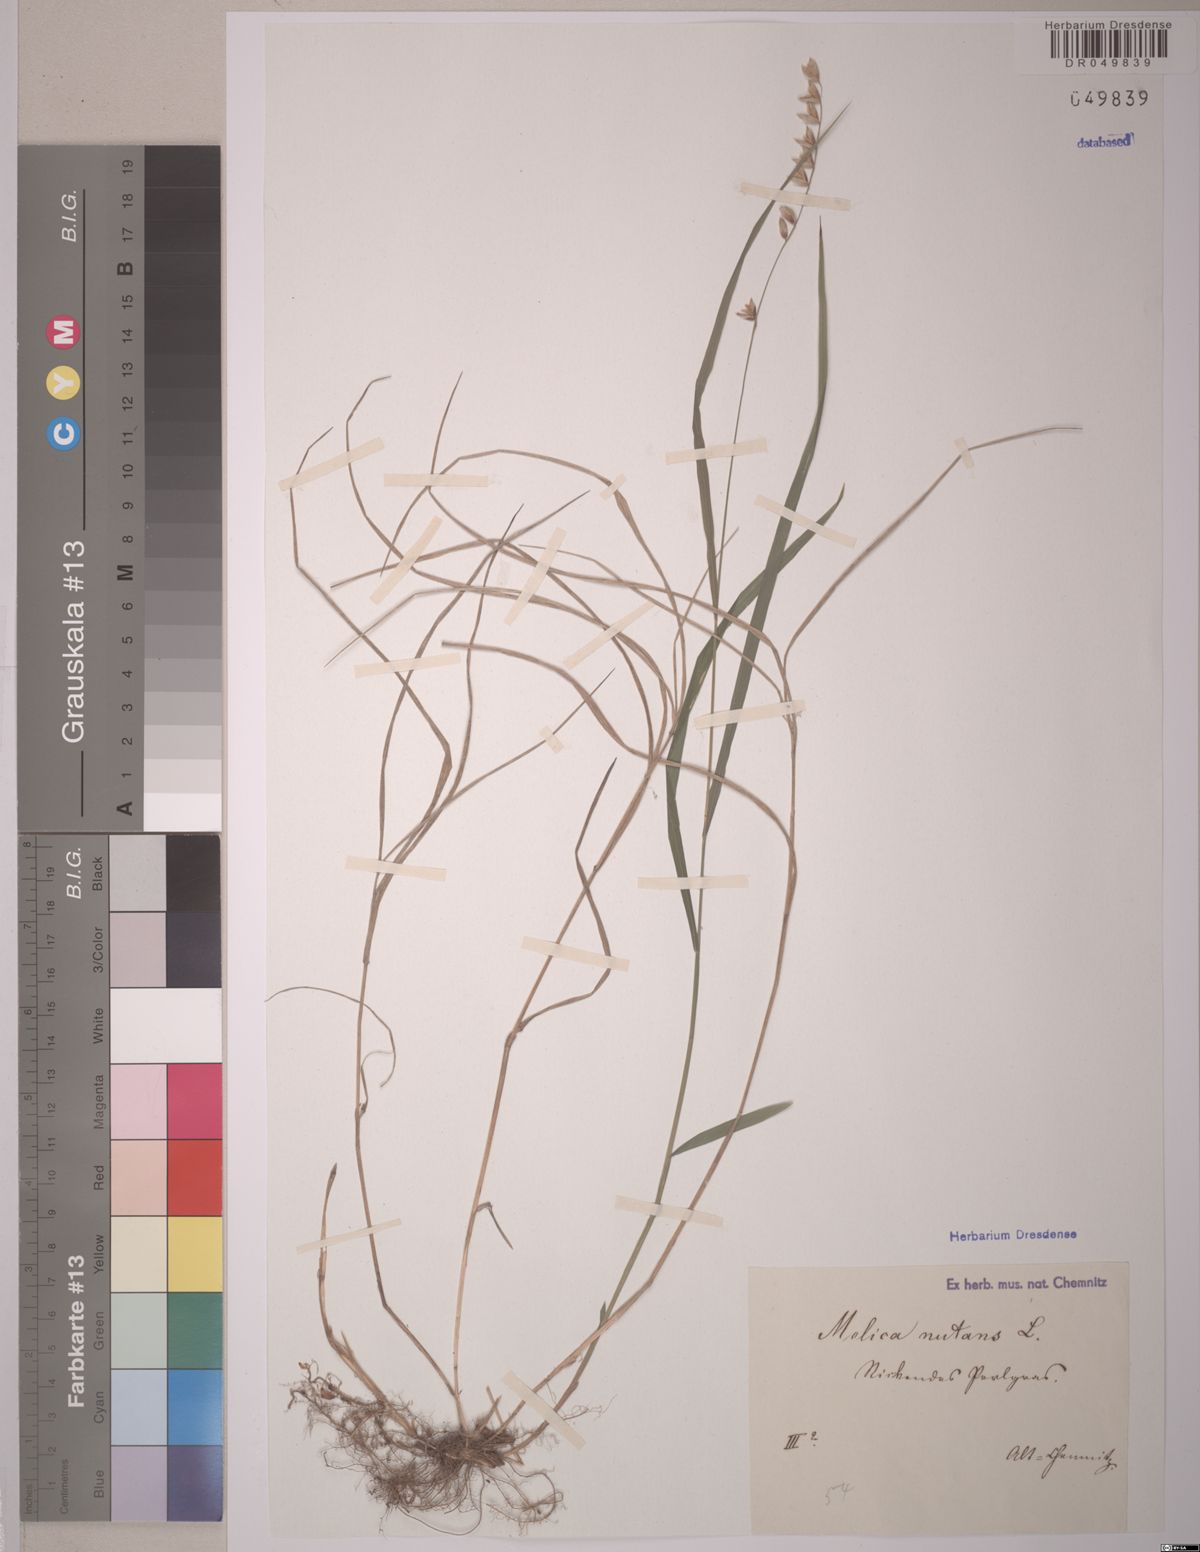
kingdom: Plantae
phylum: Tracheophyta
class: Liliopsida
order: Poales
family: Poaceae
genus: Melica
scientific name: Melica nutans
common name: Mountain melick
